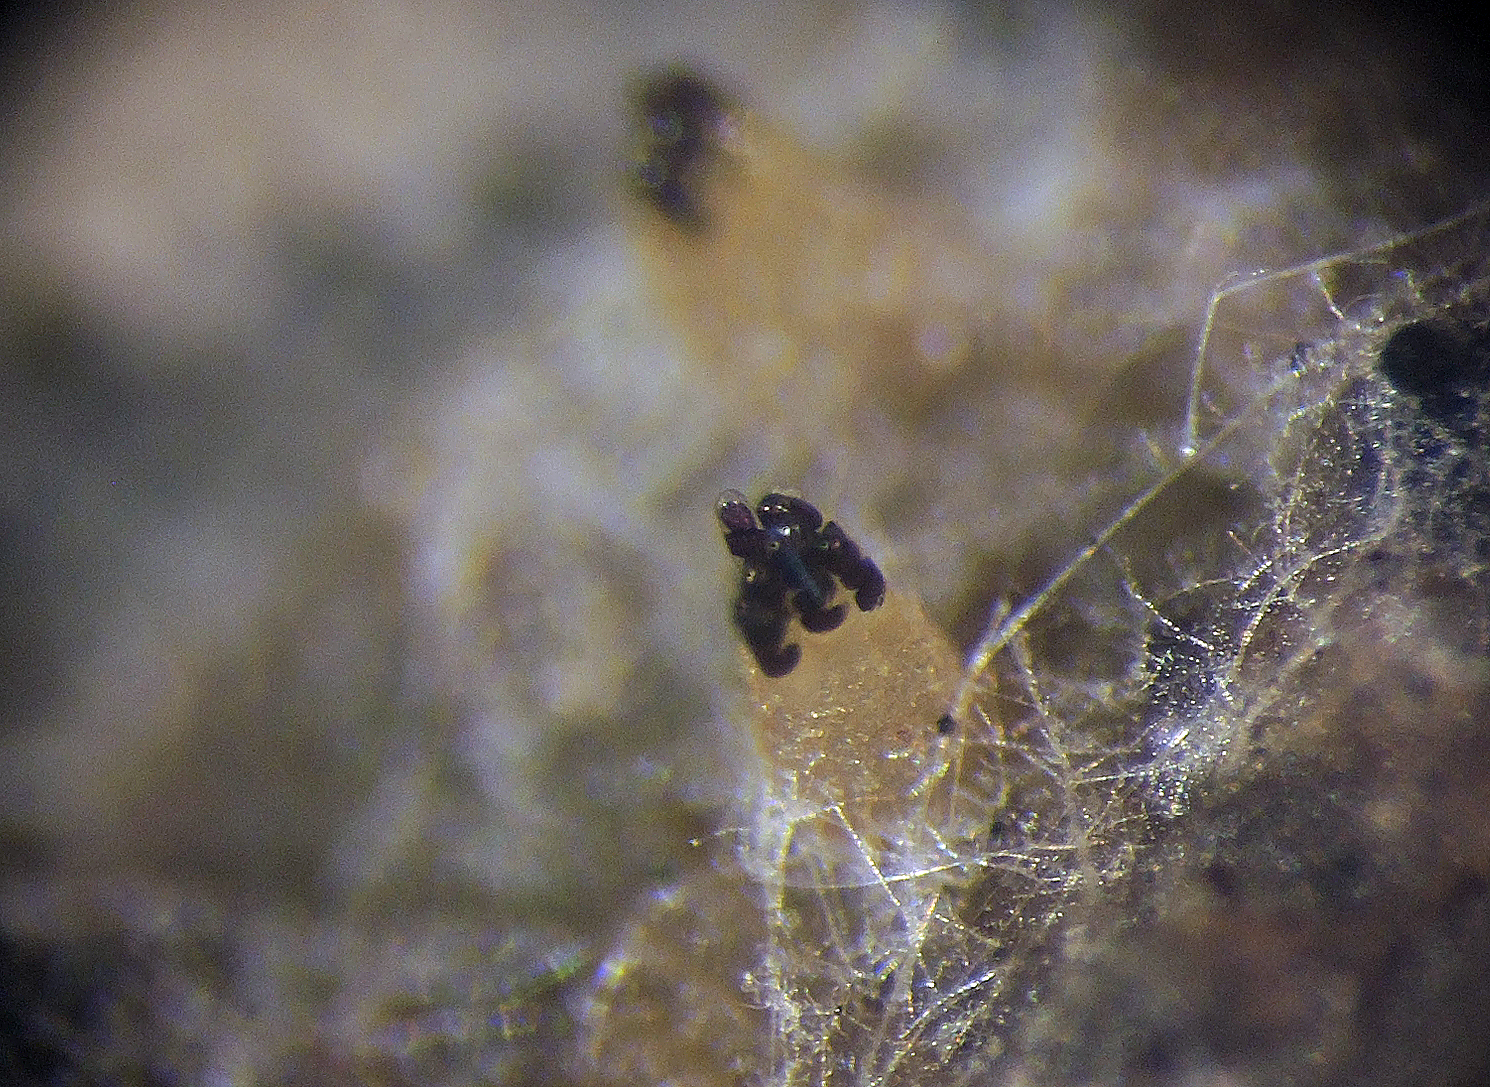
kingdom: Fungi
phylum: Ascomycota
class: Pezizomycetes
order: Pezizales
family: Ascobolaceae
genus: Ascobolus
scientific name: Ascobolus brantophilus
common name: gåselort-prikbæger
